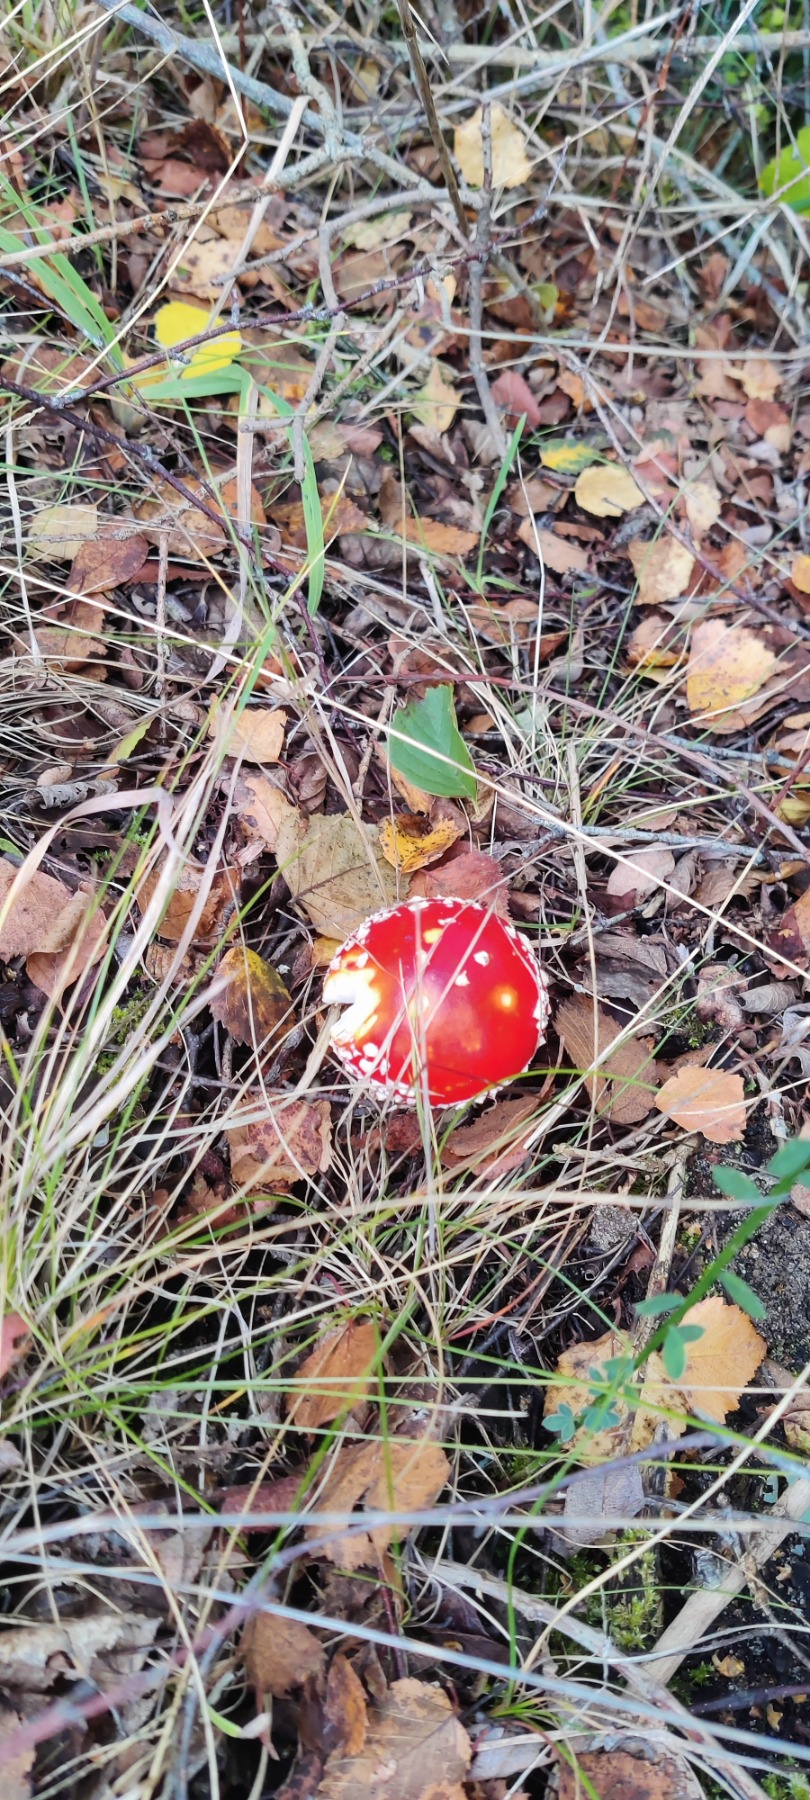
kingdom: Fungi
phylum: Basidiomycota
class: Agaricomycetes
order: Agaricales
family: Amanitaceae
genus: Amanita
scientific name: Amanita muscaria
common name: Rød fluesvamp
